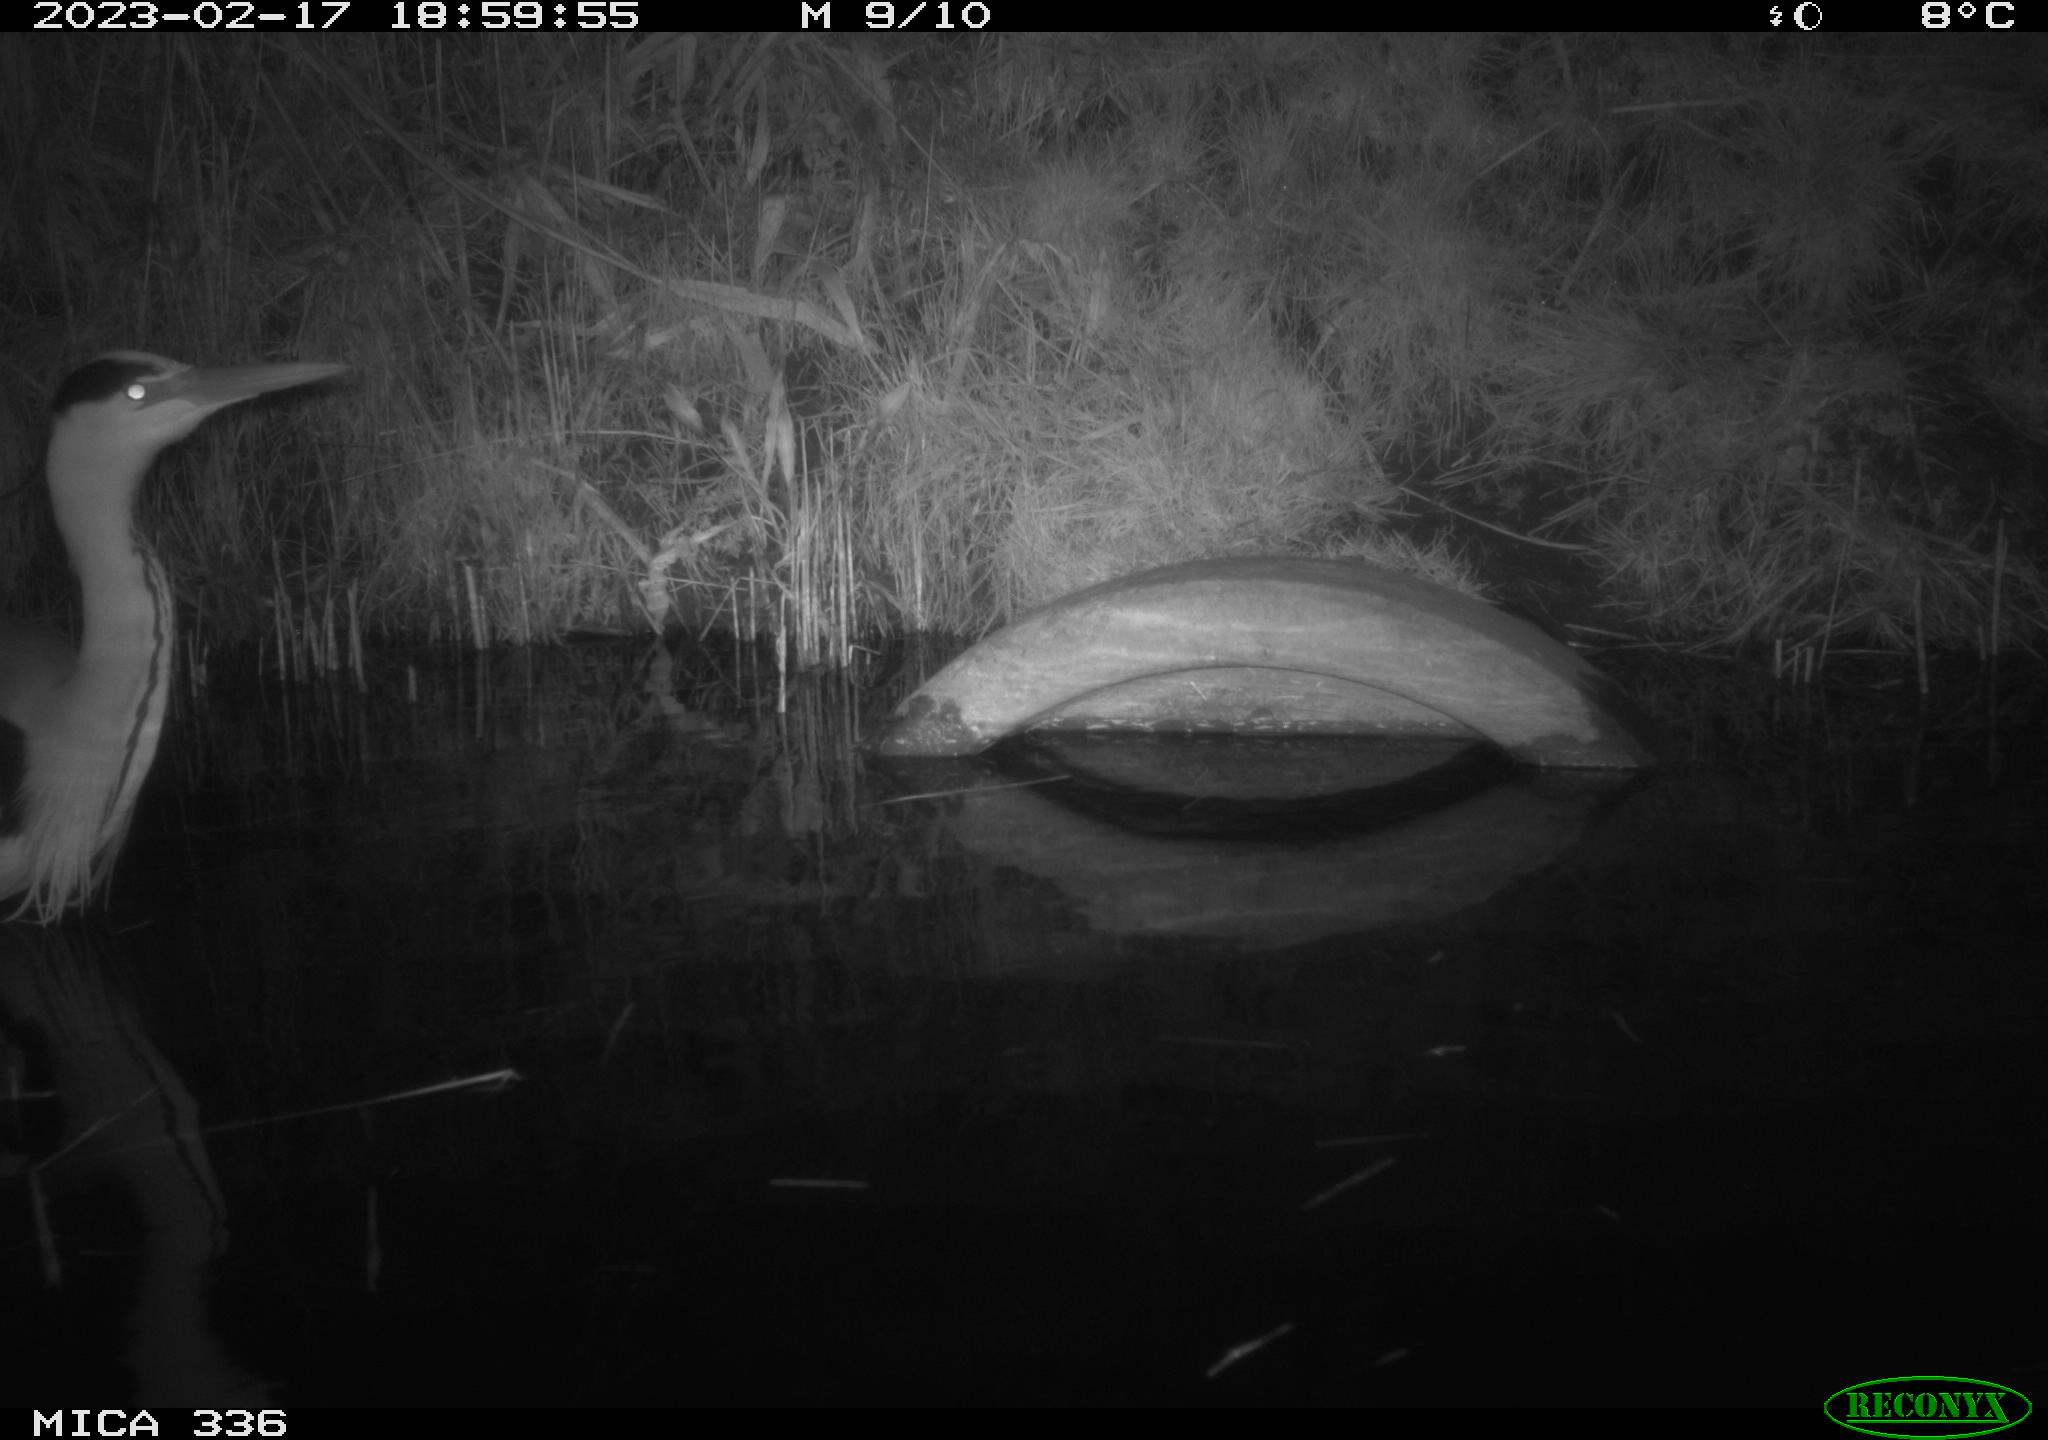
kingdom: Animalia
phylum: Chordata
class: Aves
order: Pelecaniformes
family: Ardeidae
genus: Ardea
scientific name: Ardea cinerea
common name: Grey heron
